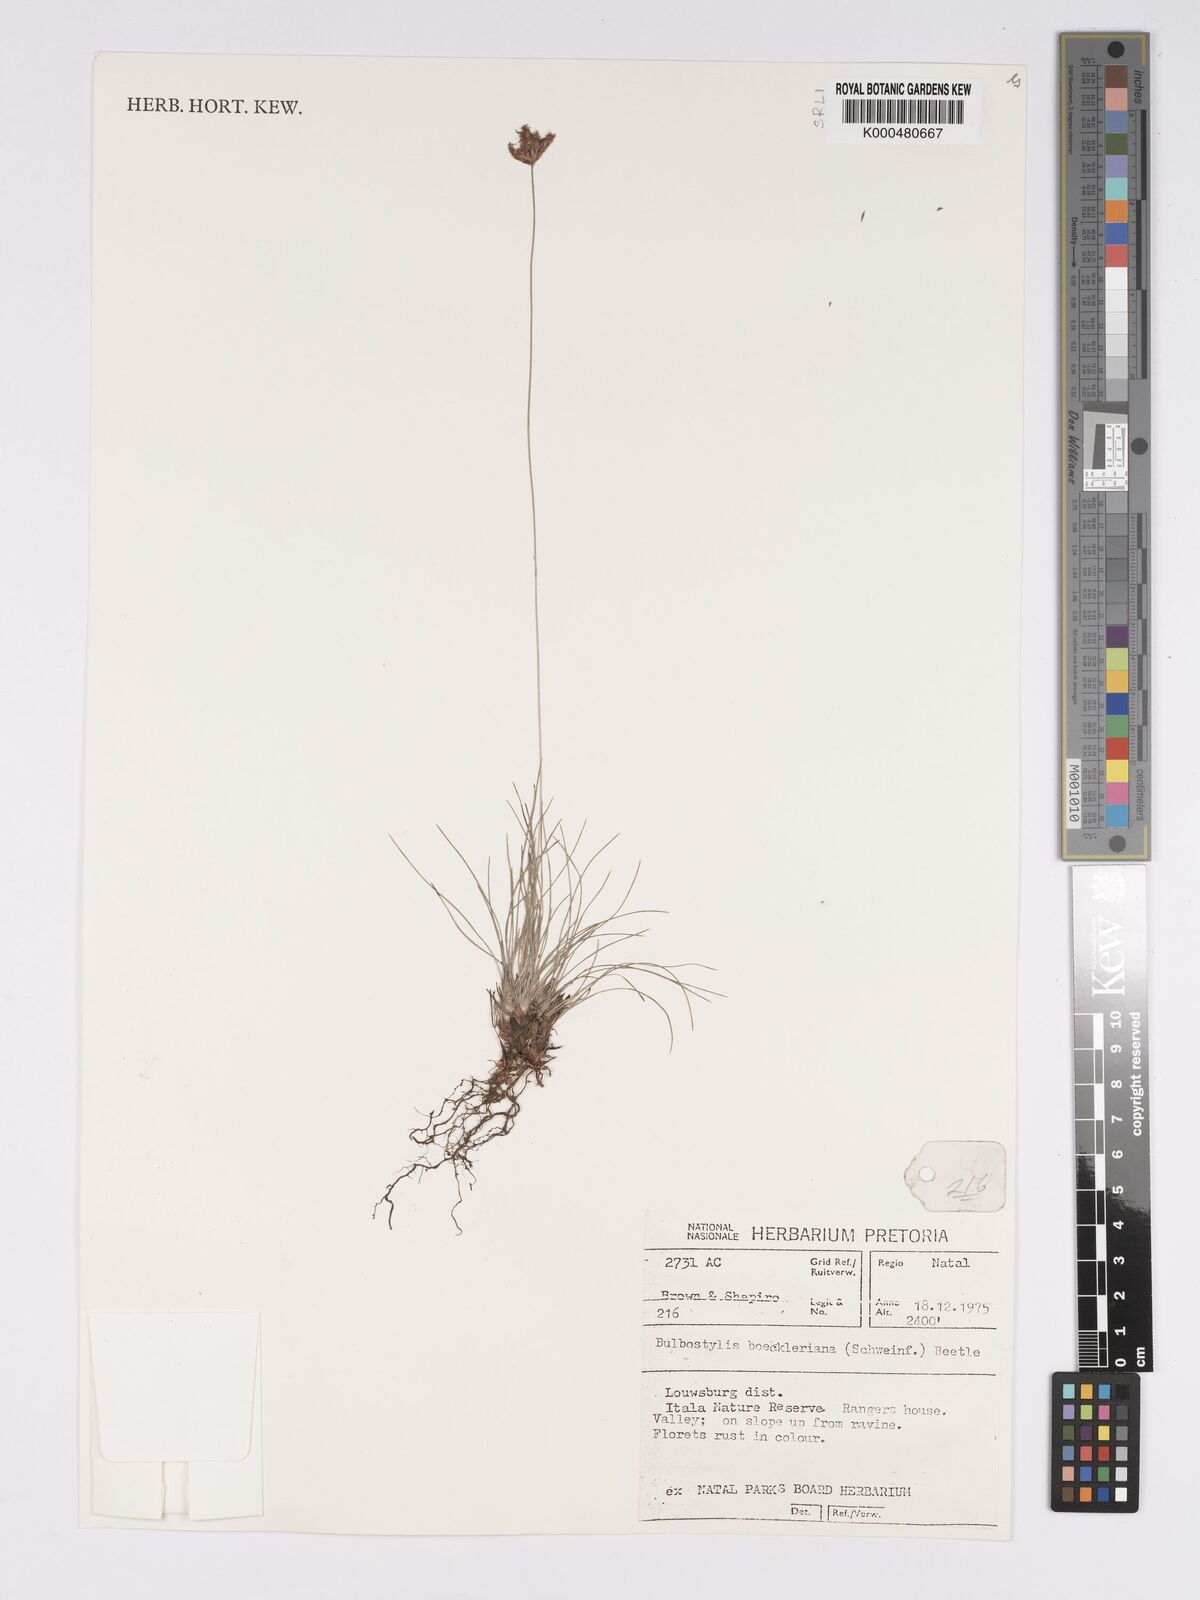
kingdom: Plantae
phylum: Tracheophyta
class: Liliopsida
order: Poales
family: Cyperaceae
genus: Bulbostylis
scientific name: Bulbostylis boeckeleriana
